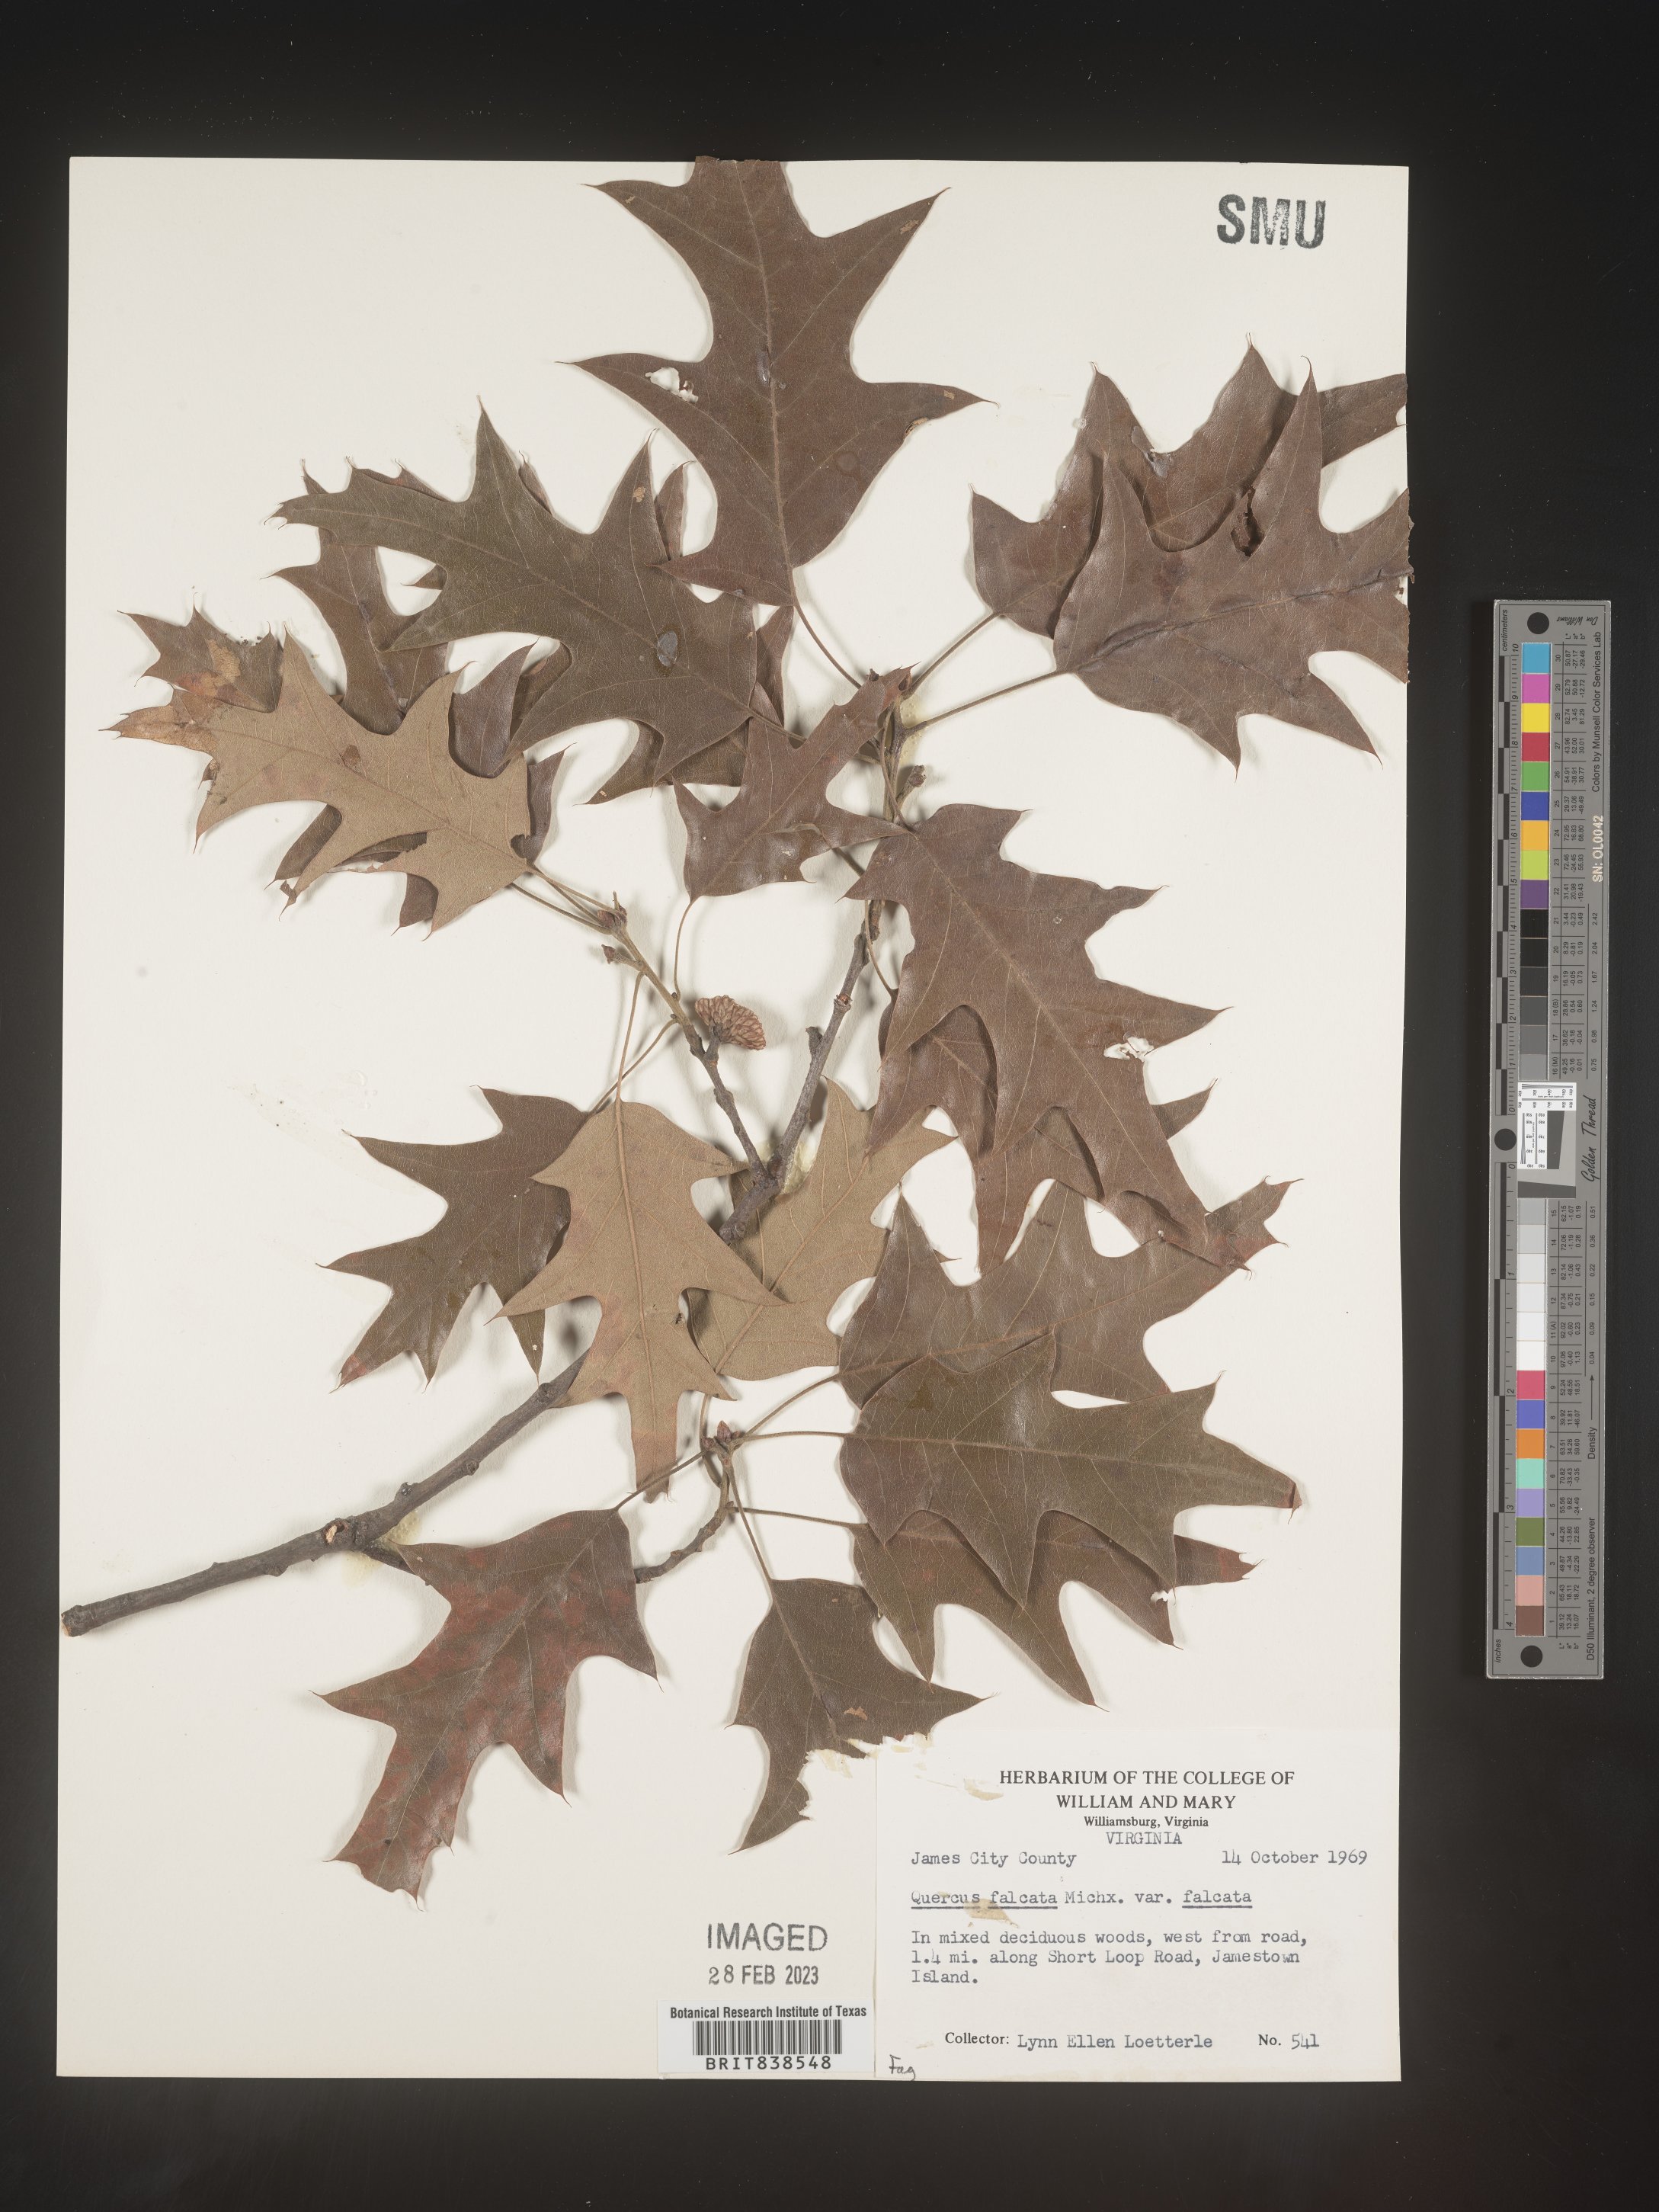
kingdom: Plantae
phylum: Tracheophyta
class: Magnoliopsida
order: Fagales
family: Fagaceae
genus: Quercus
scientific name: Quercus falcata
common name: Southern red oak
